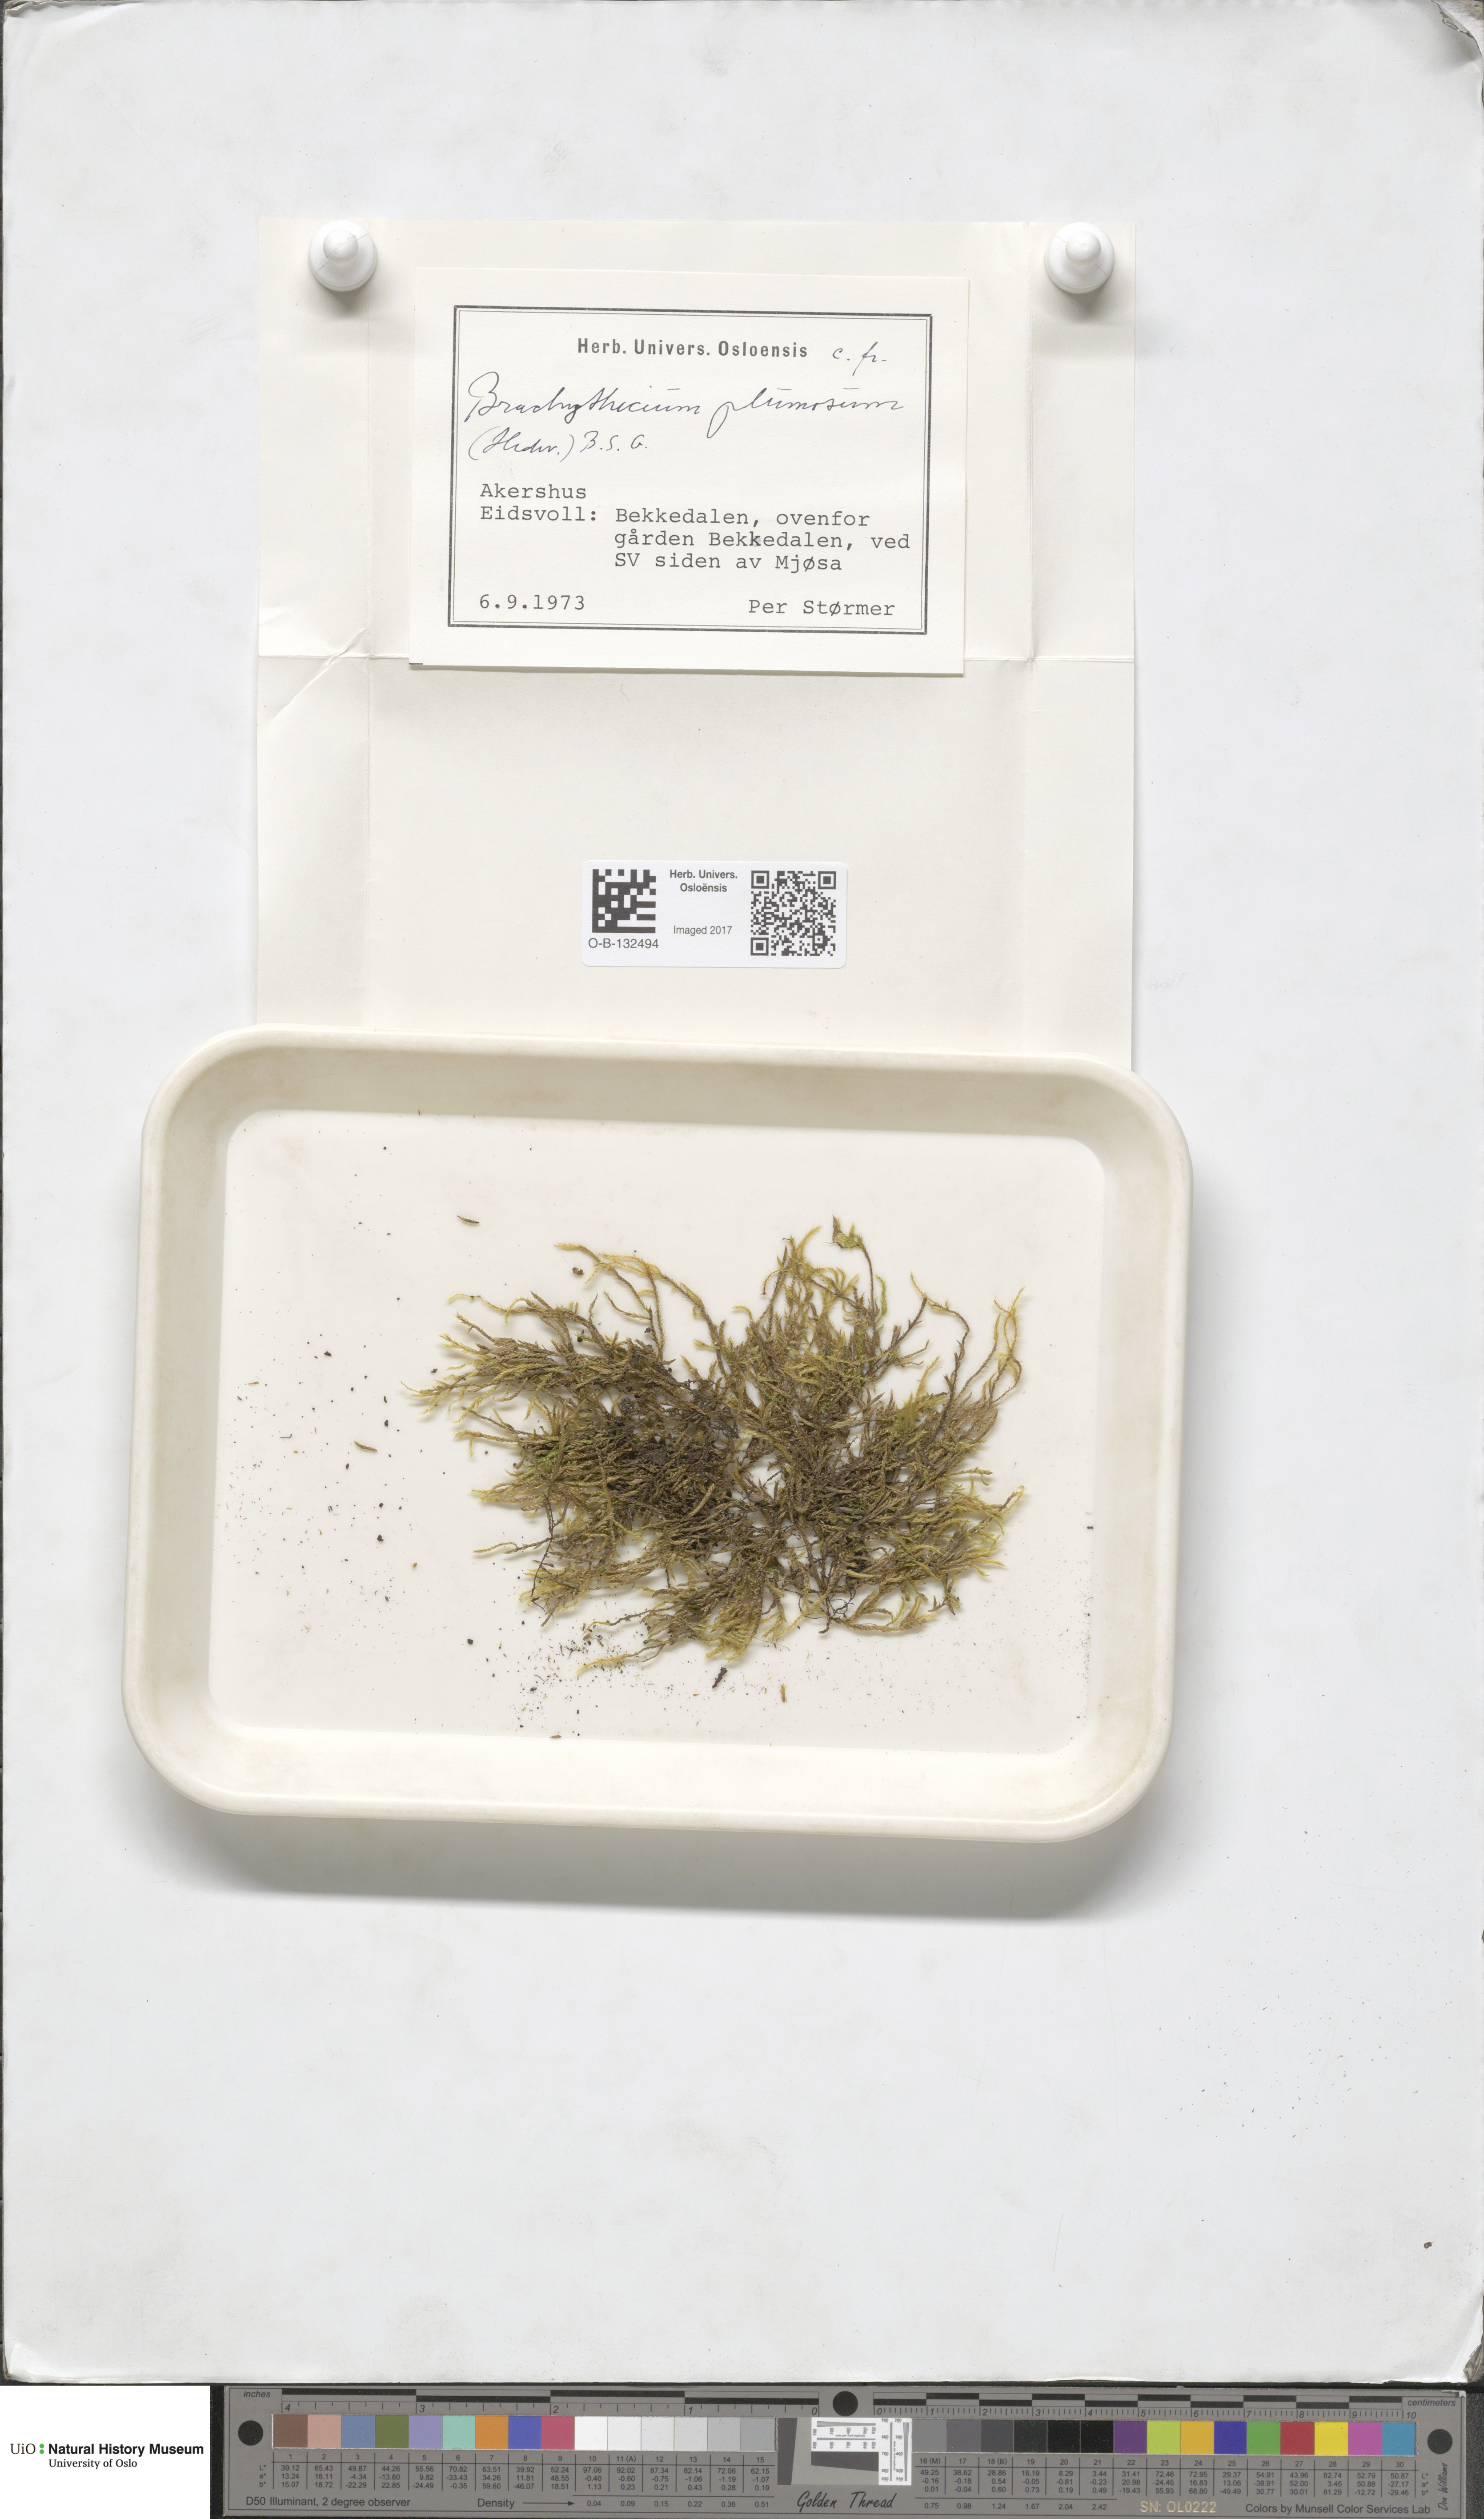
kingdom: Plantae
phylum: Bryophyta
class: Bryopsida
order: Hypnales
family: Brachytheciaceae
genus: Sciuro-hypnum
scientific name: Sciuro-hypnum plumosum
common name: Rusty feather-moss
